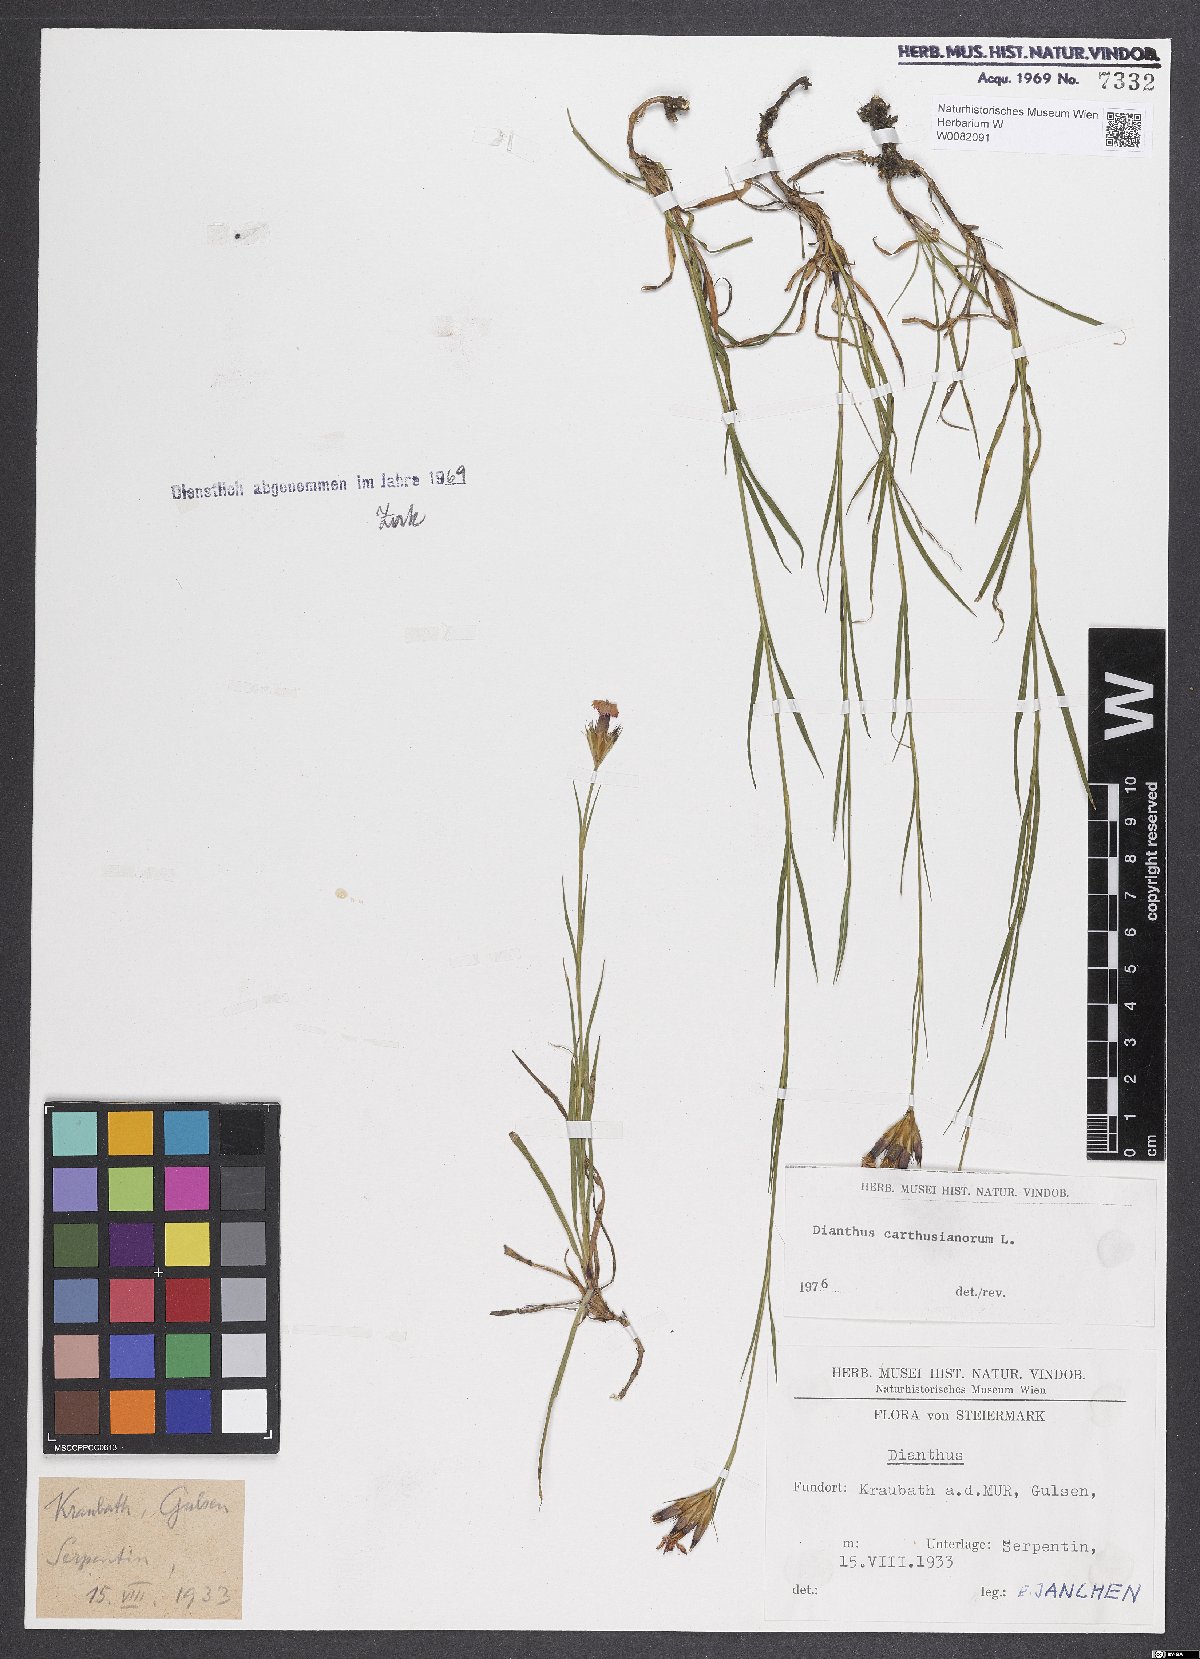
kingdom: Plantae
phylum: Tracheophyta
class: Magnoliopsida
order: Caryophyllales
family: Caryophyllaceae
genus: Dianthus
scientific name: Dianthus carthusianorum
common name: Carthusian pink
